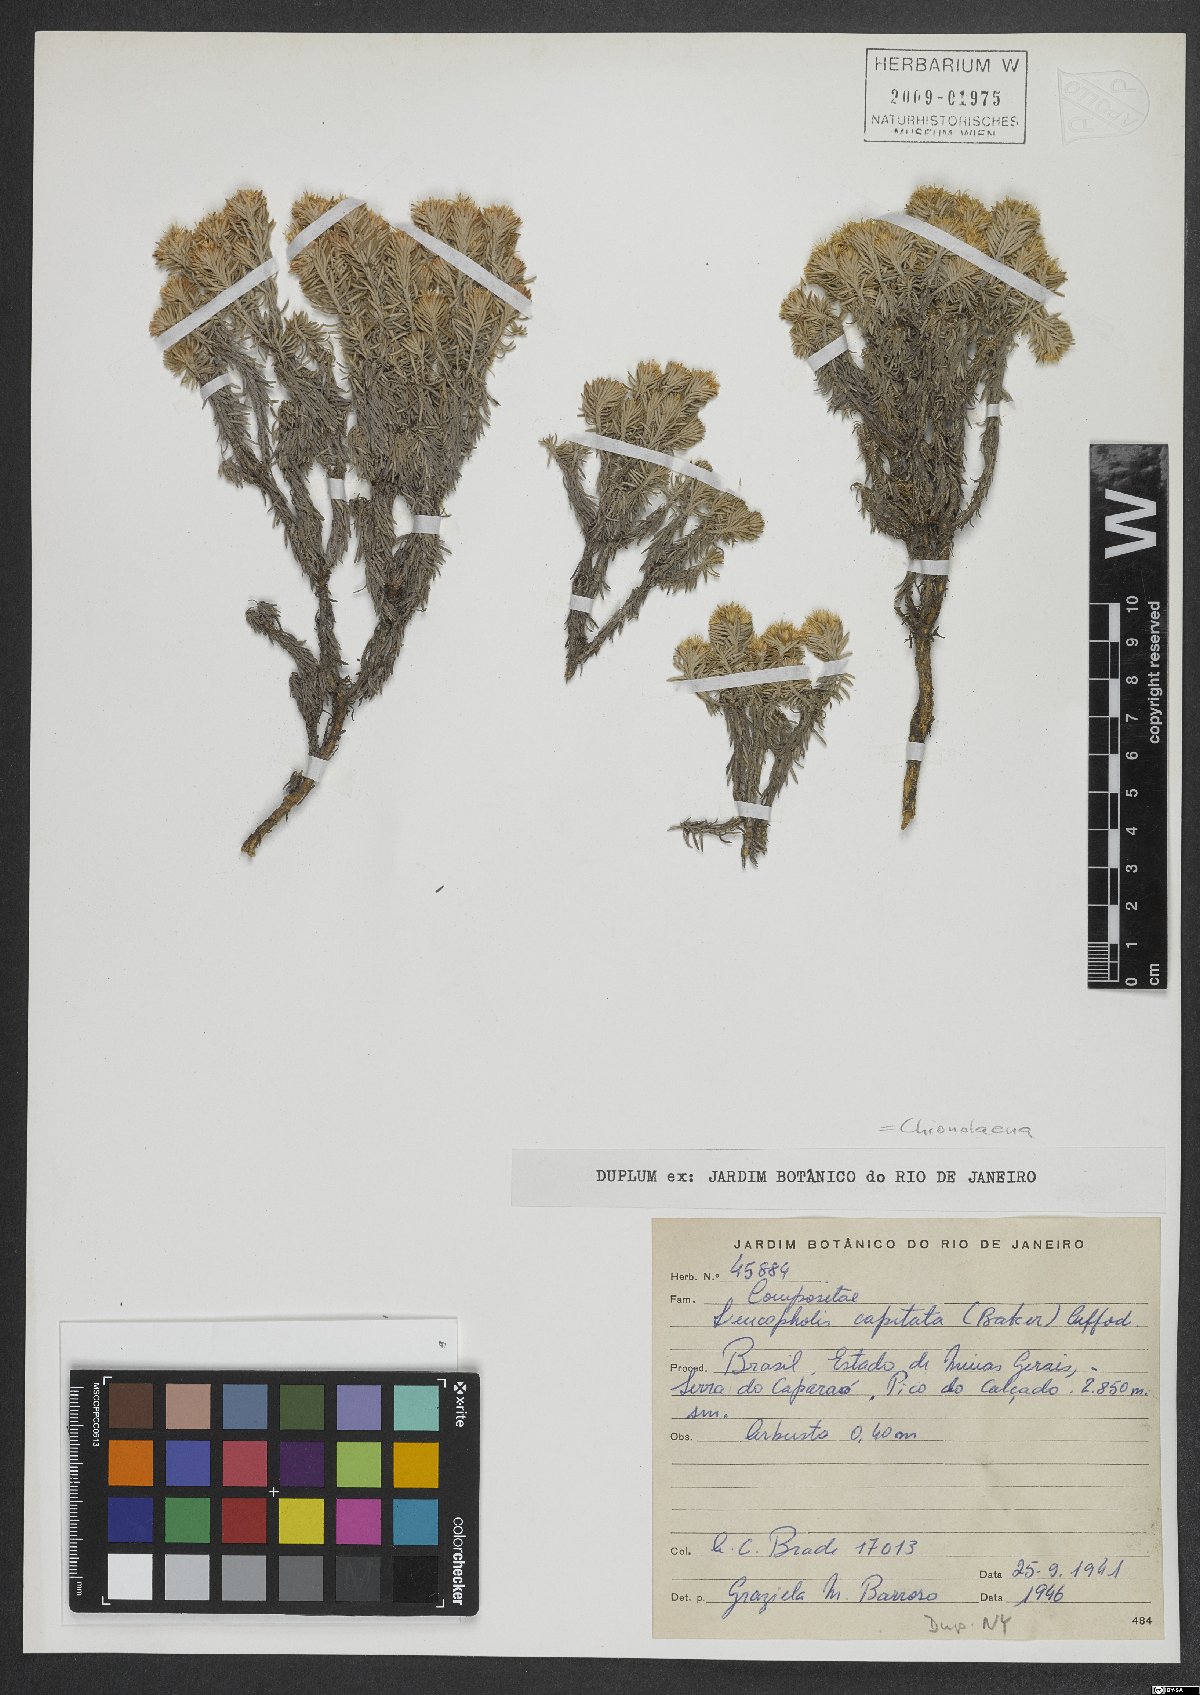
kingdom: Plantae
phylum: Tracheophyta
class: Magnoliopsida
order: Asterales
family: Asteraceae
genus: Chionolaena
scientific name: Chionolaena capitata
